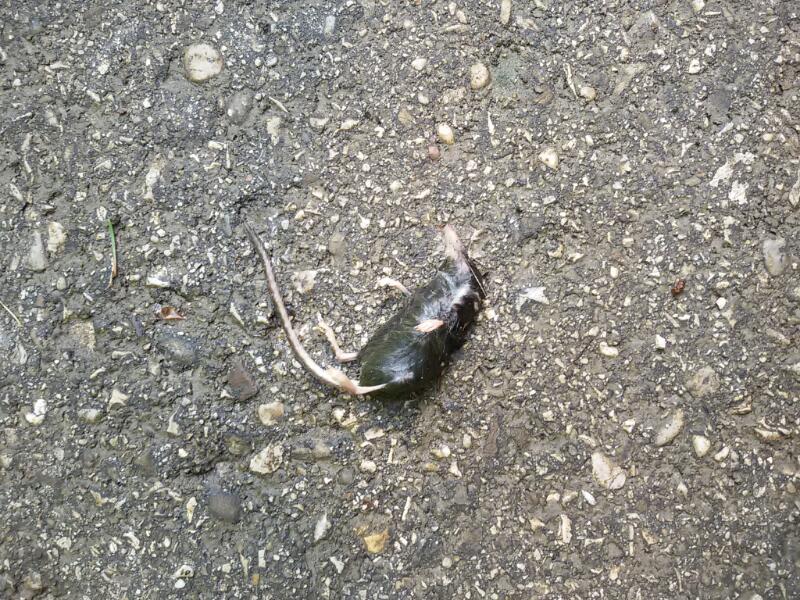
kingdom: Animalia
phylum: Chordata
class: Mammalia
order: Soricomorpha
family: Soricidae
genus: Sorex
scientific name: Sorex alpinus
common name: Alpine shrew
